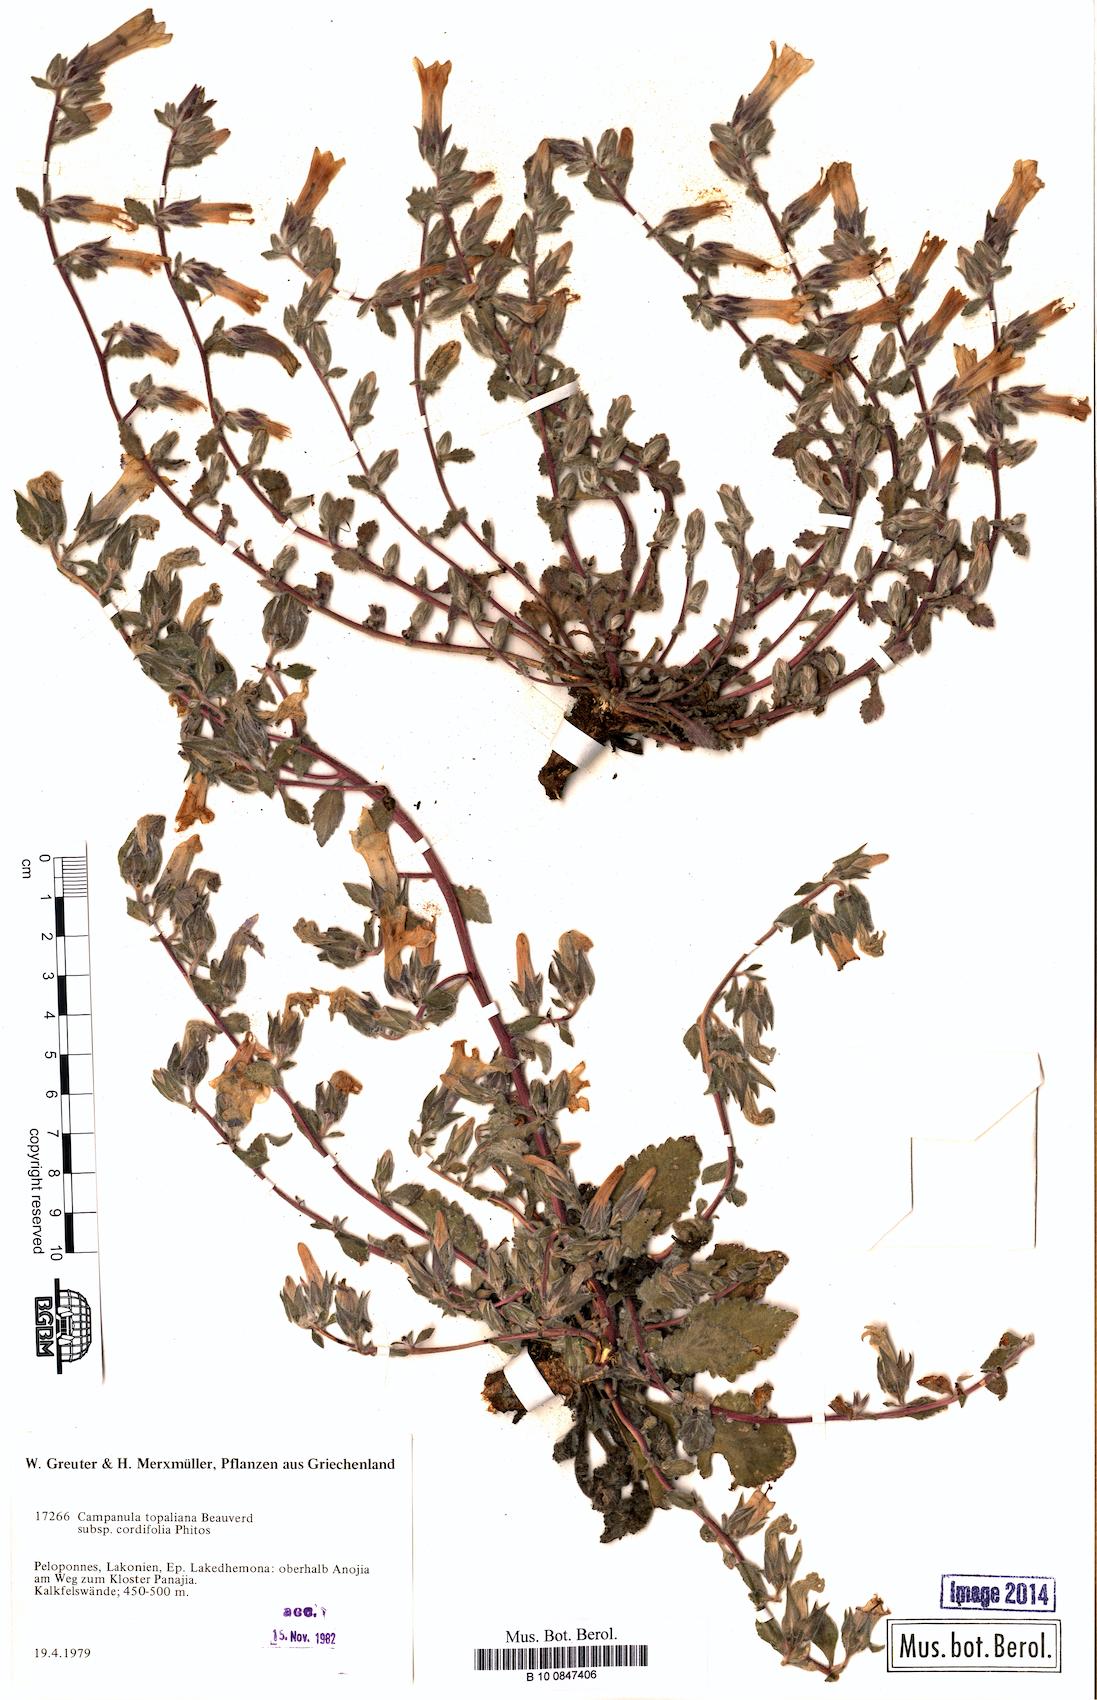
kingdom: Plantae
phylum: Tracheophyta
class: Magnoliopsida
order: Asterales
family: Campanulaceae
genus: Campanula
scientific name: Campanula topaliana
